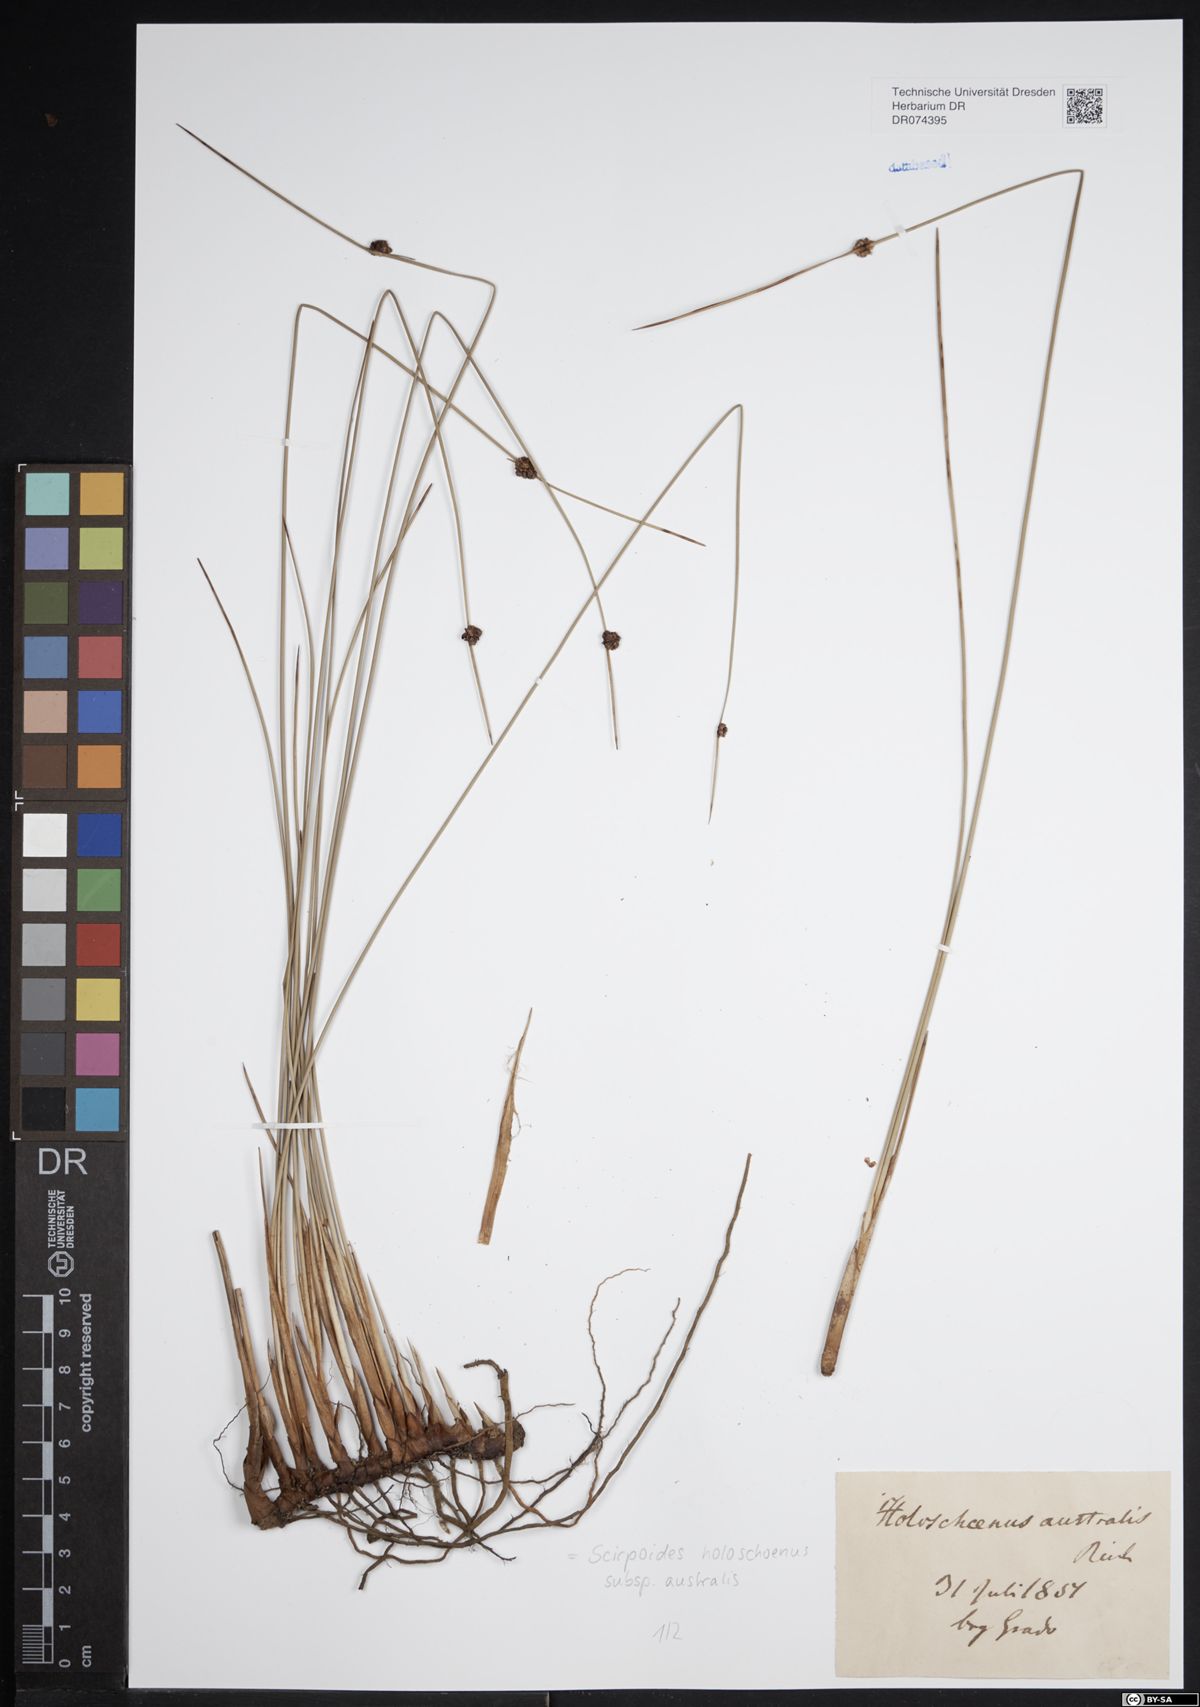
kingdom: Plantae
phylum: Tracheophyta
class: Liliopsida
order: Poales
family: Cyperaceae
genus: Scirpoides
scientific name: Scirpoides holoschoenus
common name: Round-headed club-rush
